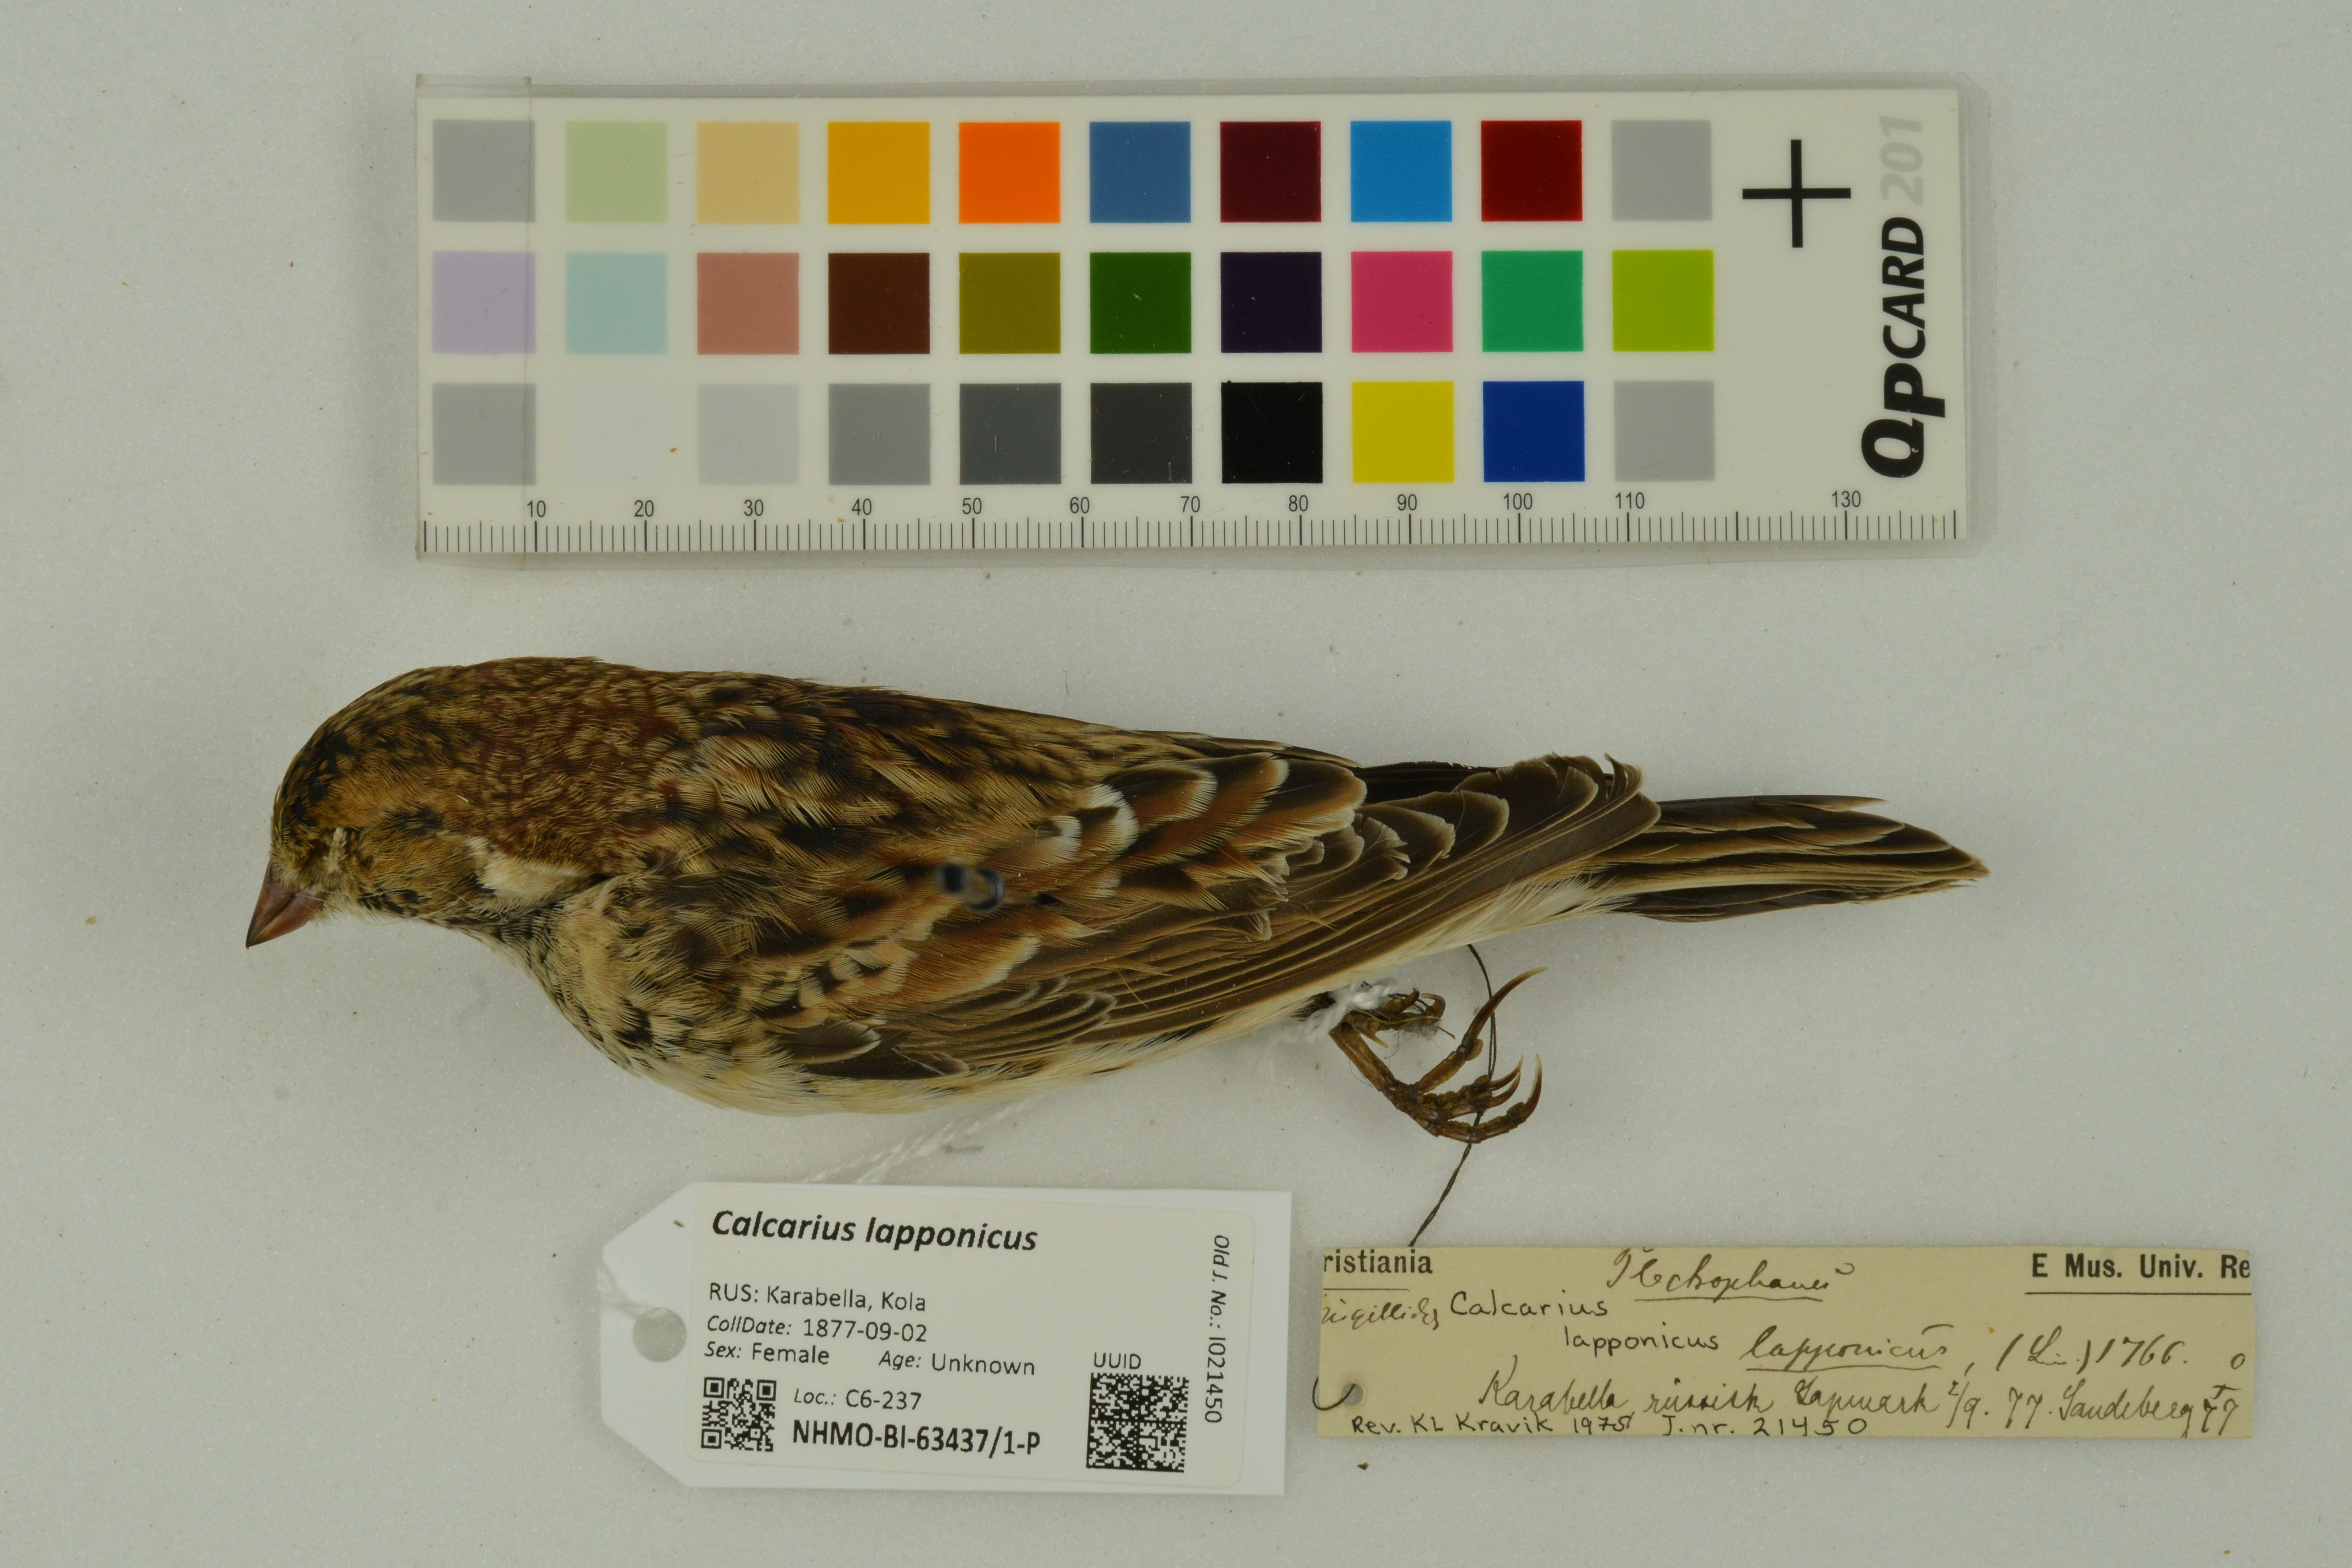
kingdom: Animalia
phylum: Chordata
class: Aves
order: Passeriformes
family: Calcariidae
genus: Calcarius
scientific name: Calcarius lapponicus
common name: Lapland longspur
